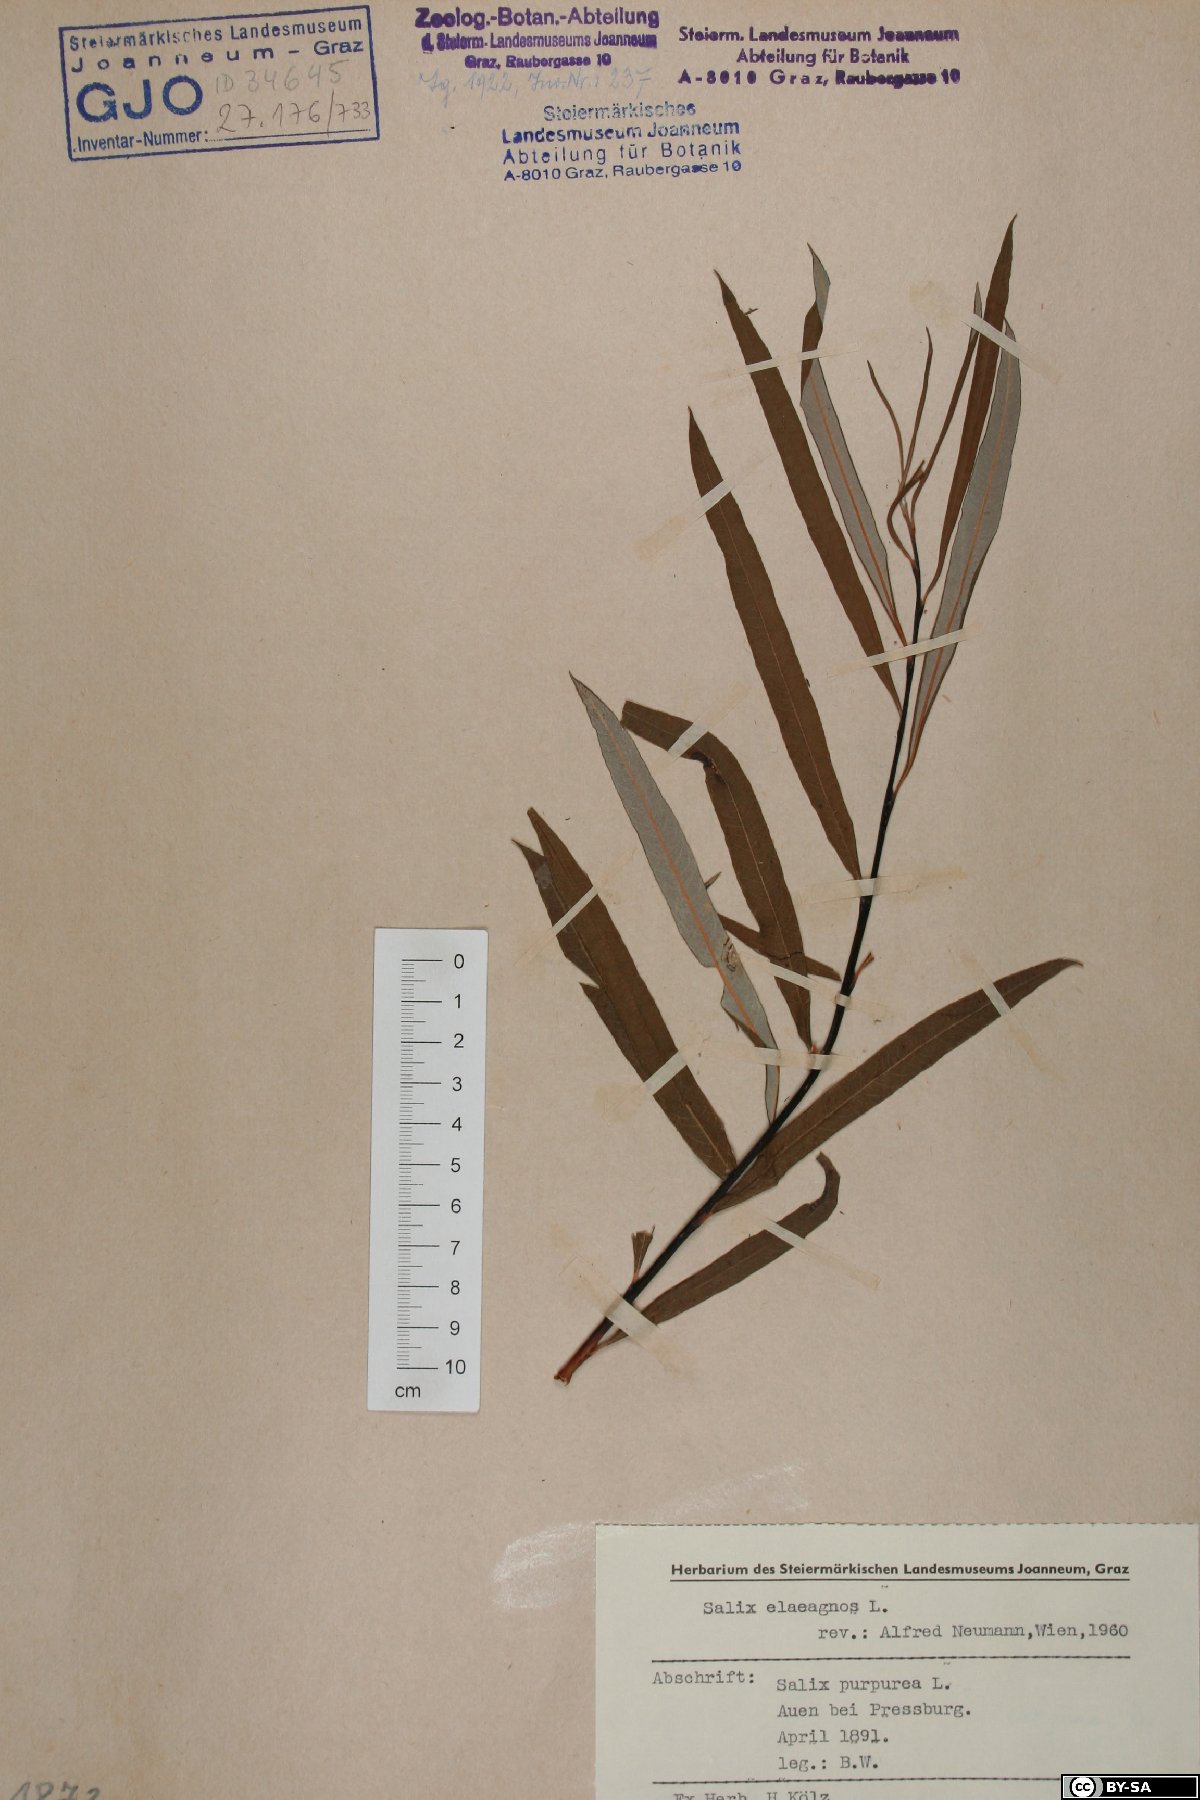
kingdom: Plantae
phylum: Tracheophyta
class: Magnoliopsida
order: Malpighiales
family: Salicaceae
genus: Salix
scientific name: Salix eleagnos
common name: Elaeagnus willow
